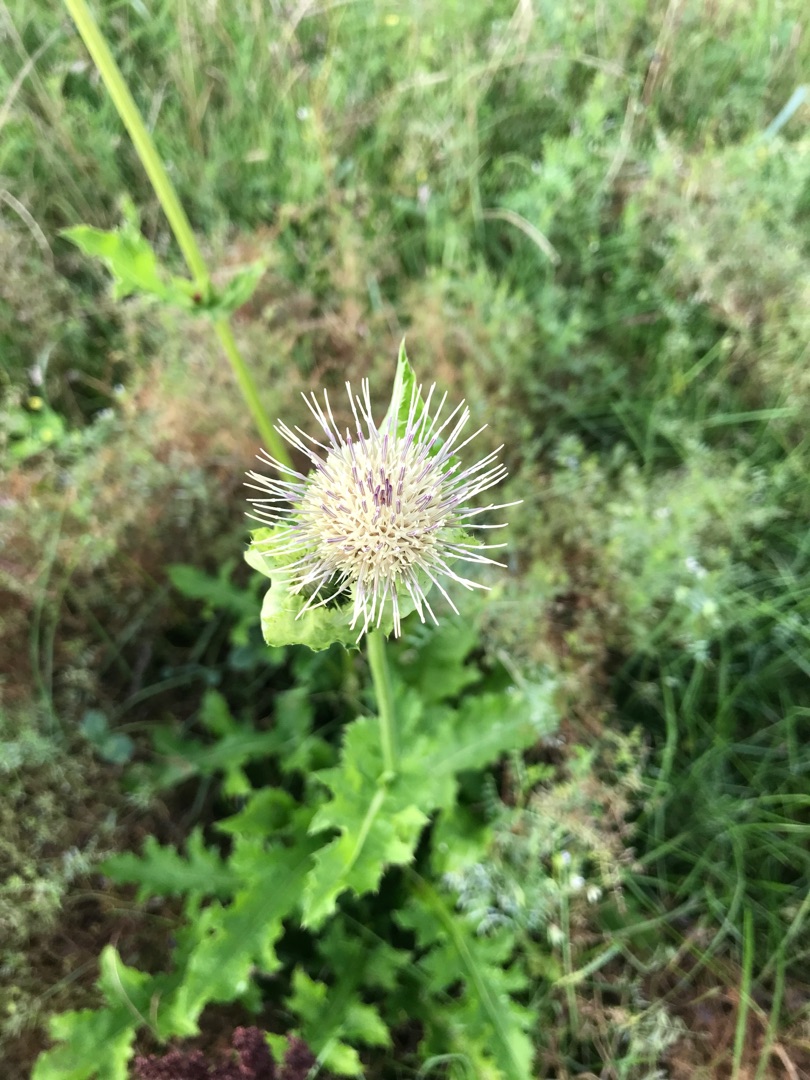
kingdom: Plantae
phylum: Tracheophyta
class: Magnoliopsida
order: Asterales
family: Asteraceae
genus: Cirsium
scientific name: Cirsium oleraceum
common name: Kål-tidsel
